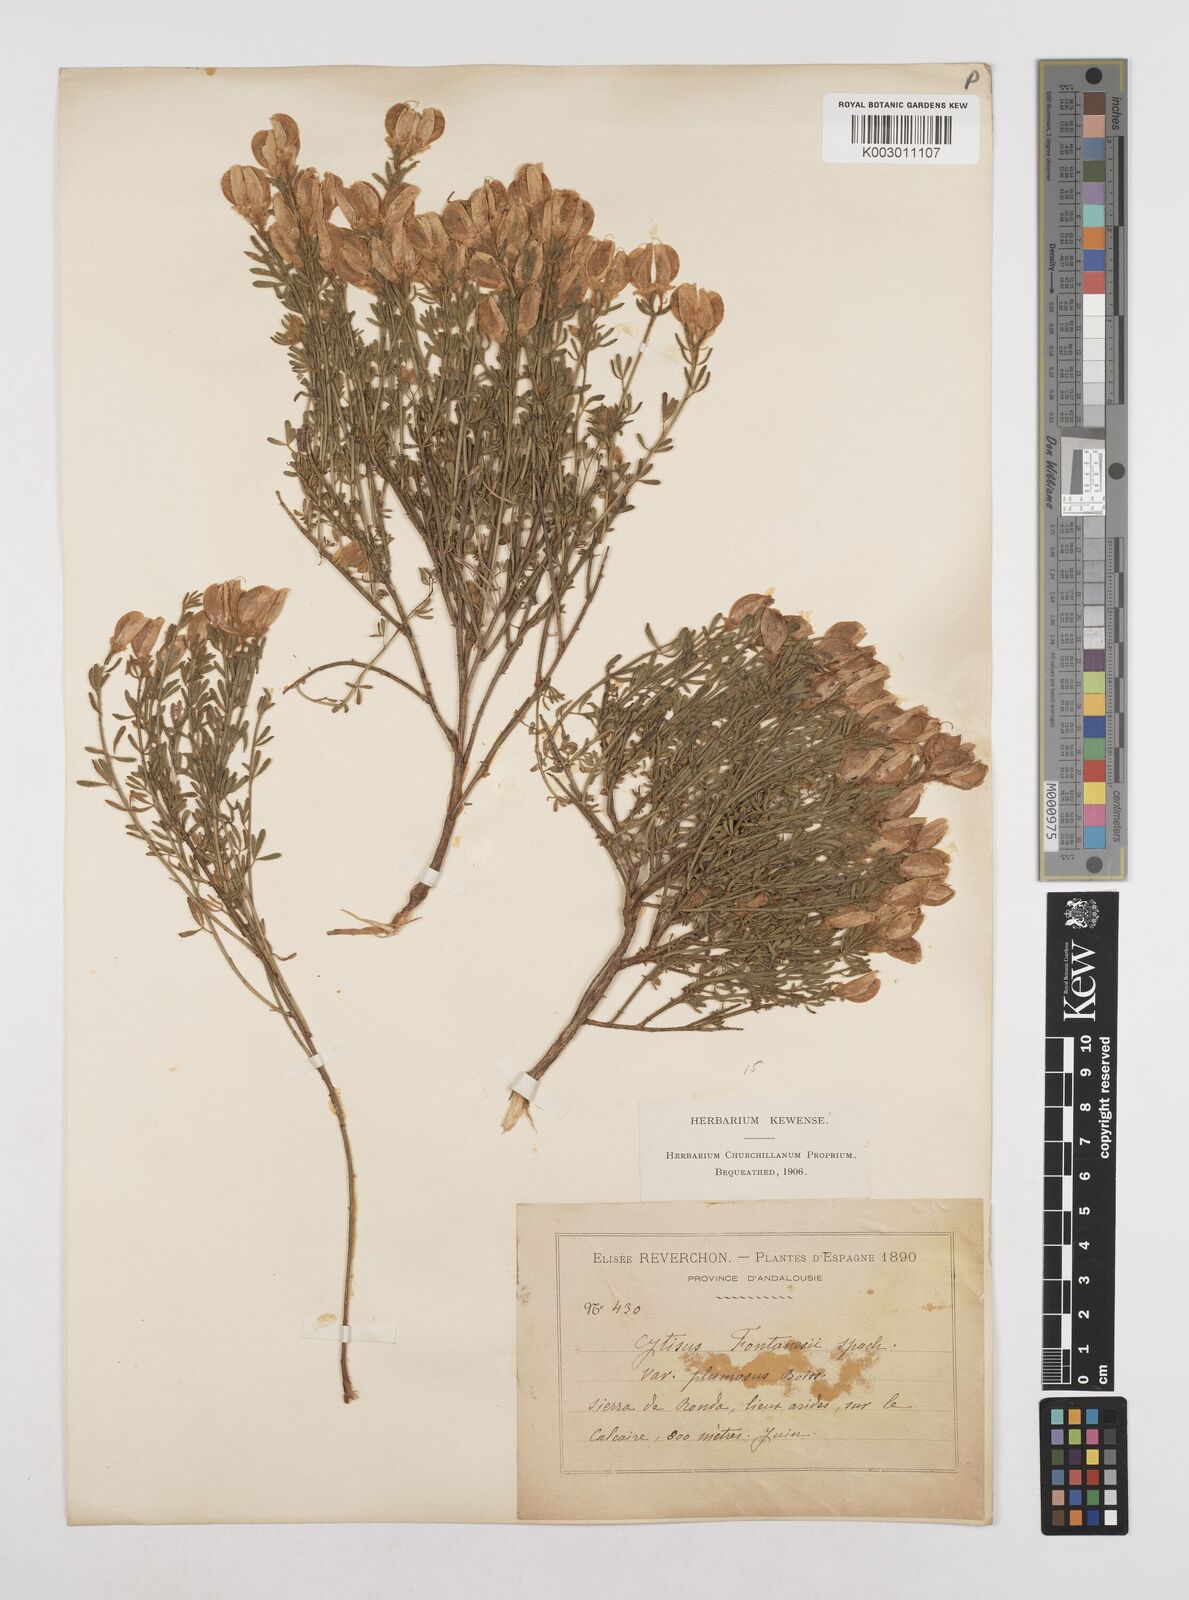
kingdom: Plantae
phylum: Tracheophyta
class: Magnoliopsida
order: Fabales
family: Fabaceae
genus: Cytisus
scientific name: Cytisus fontanesii
